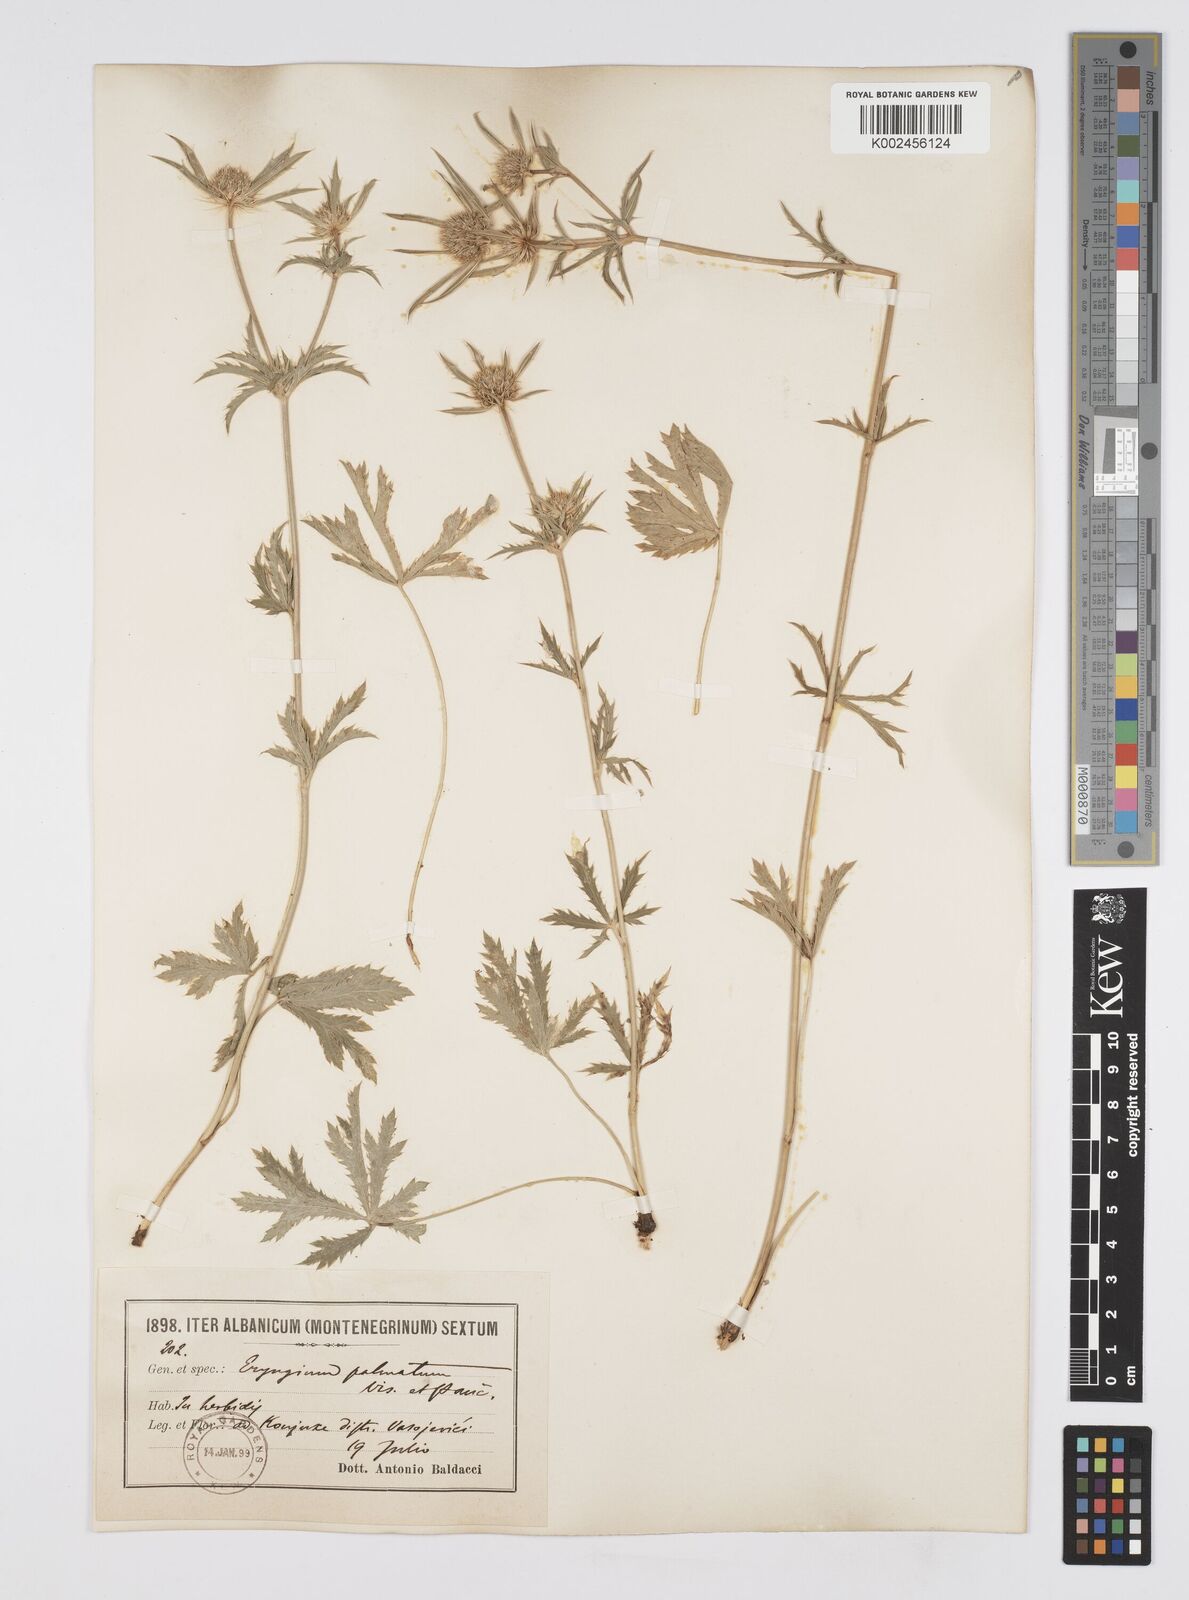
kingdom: Plantae
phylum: Tracheophyta
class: Magnoliopsida
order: Apiales
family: Apiaceae
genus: Eryngium
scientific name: Eryngium palmatum
